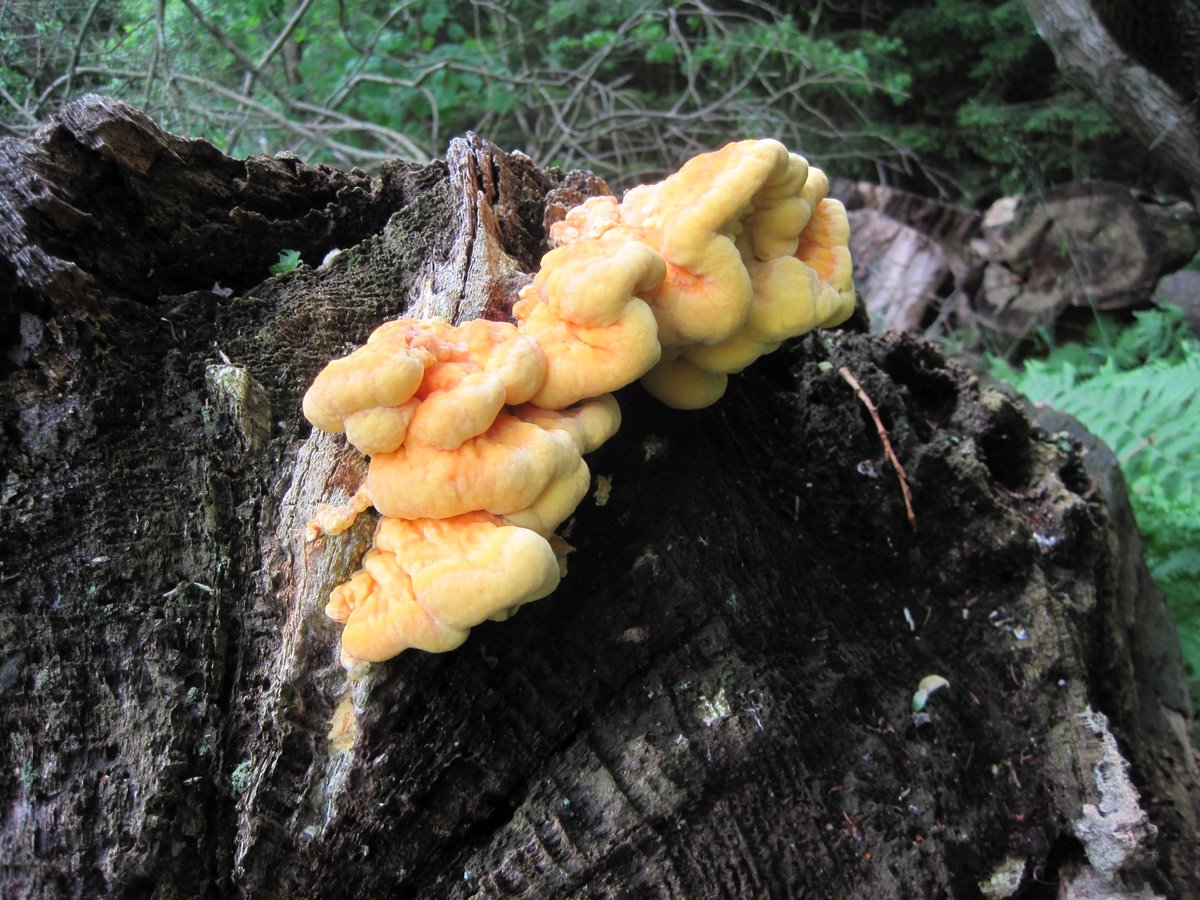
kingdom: Fungi
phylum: Basidiomycota
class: Agaricomycetes
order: Polyporales
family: Laetiporaceae
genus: Laetiporus
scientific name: Laetiporus sulphureus
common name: svovlporesvamp
